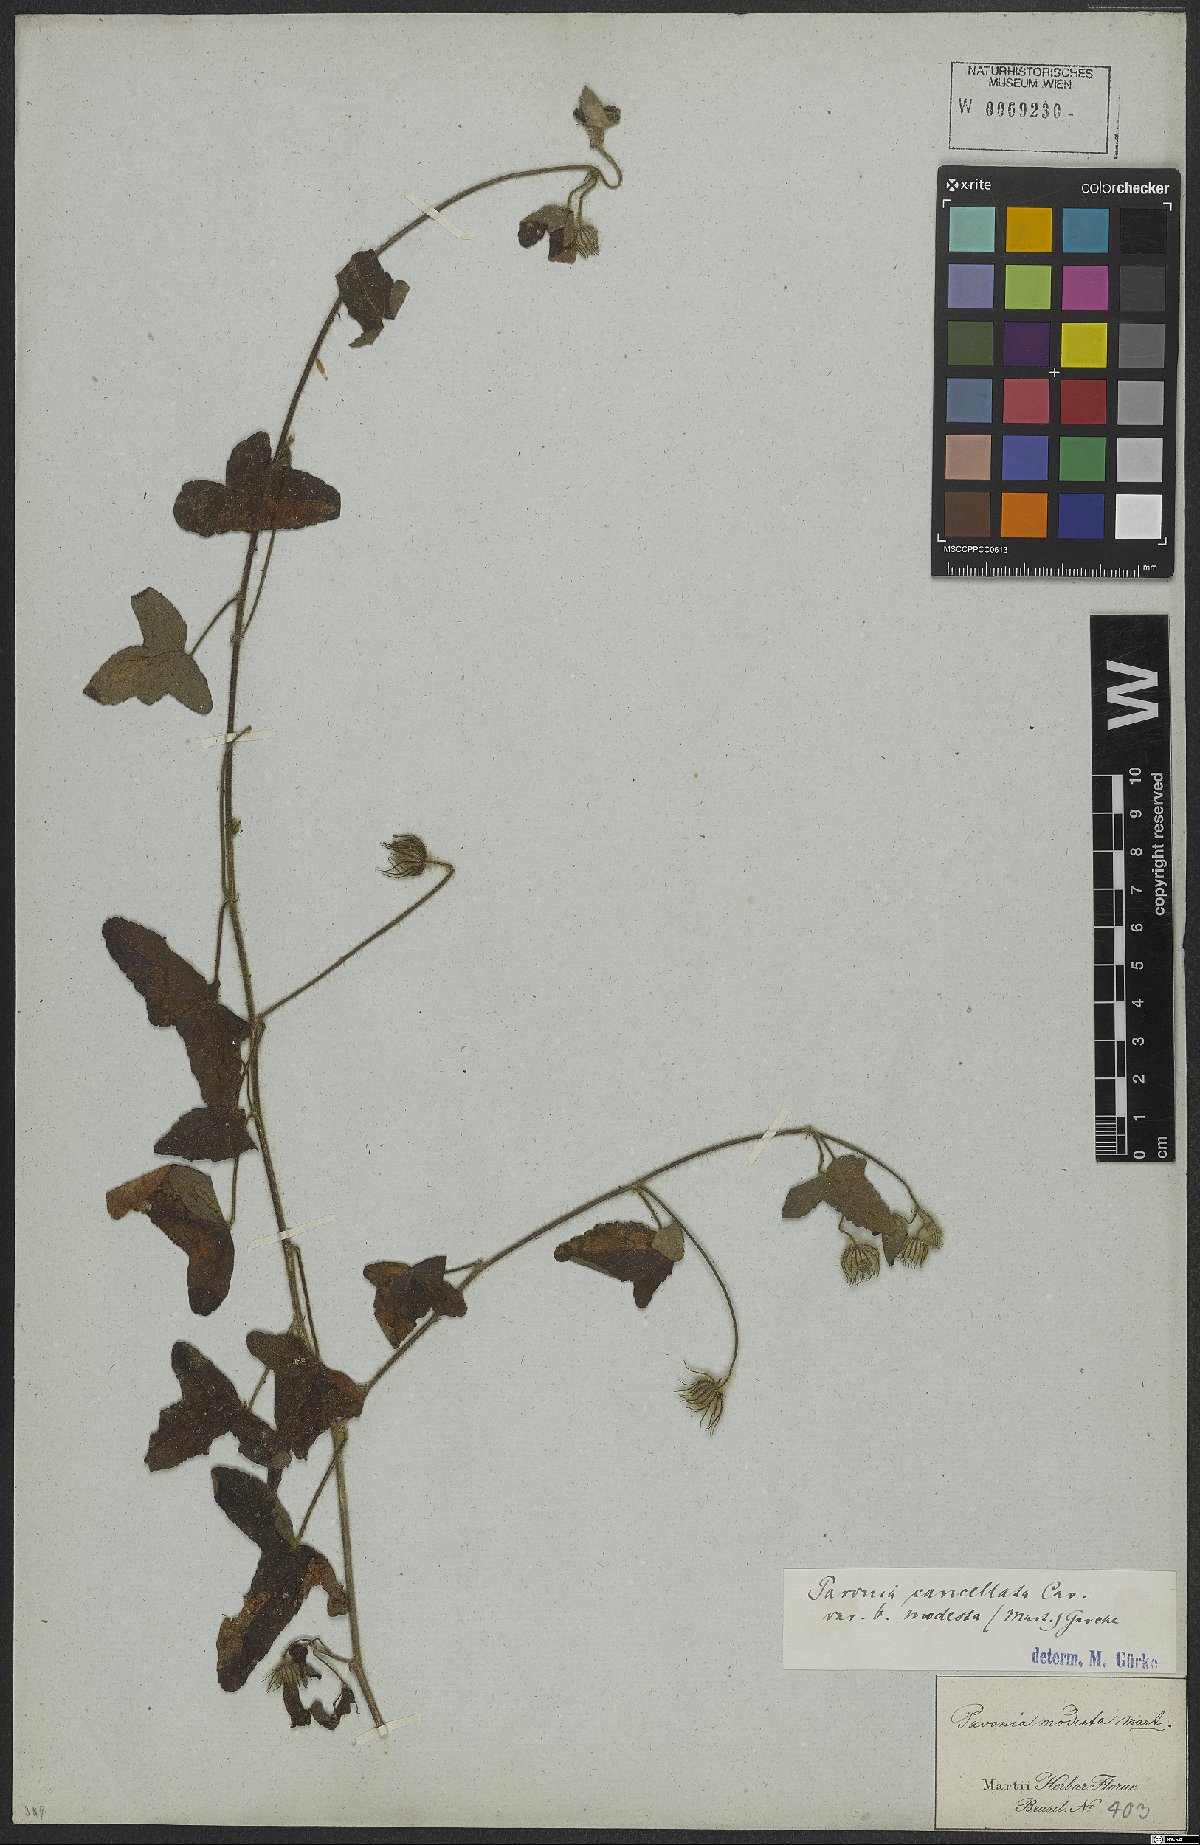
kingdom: Plantae
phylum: Tracheophyta
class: Magnoliopsida
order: Malvales
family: Malvaceae
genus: Pavonia
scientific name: Pavonia cancellata
